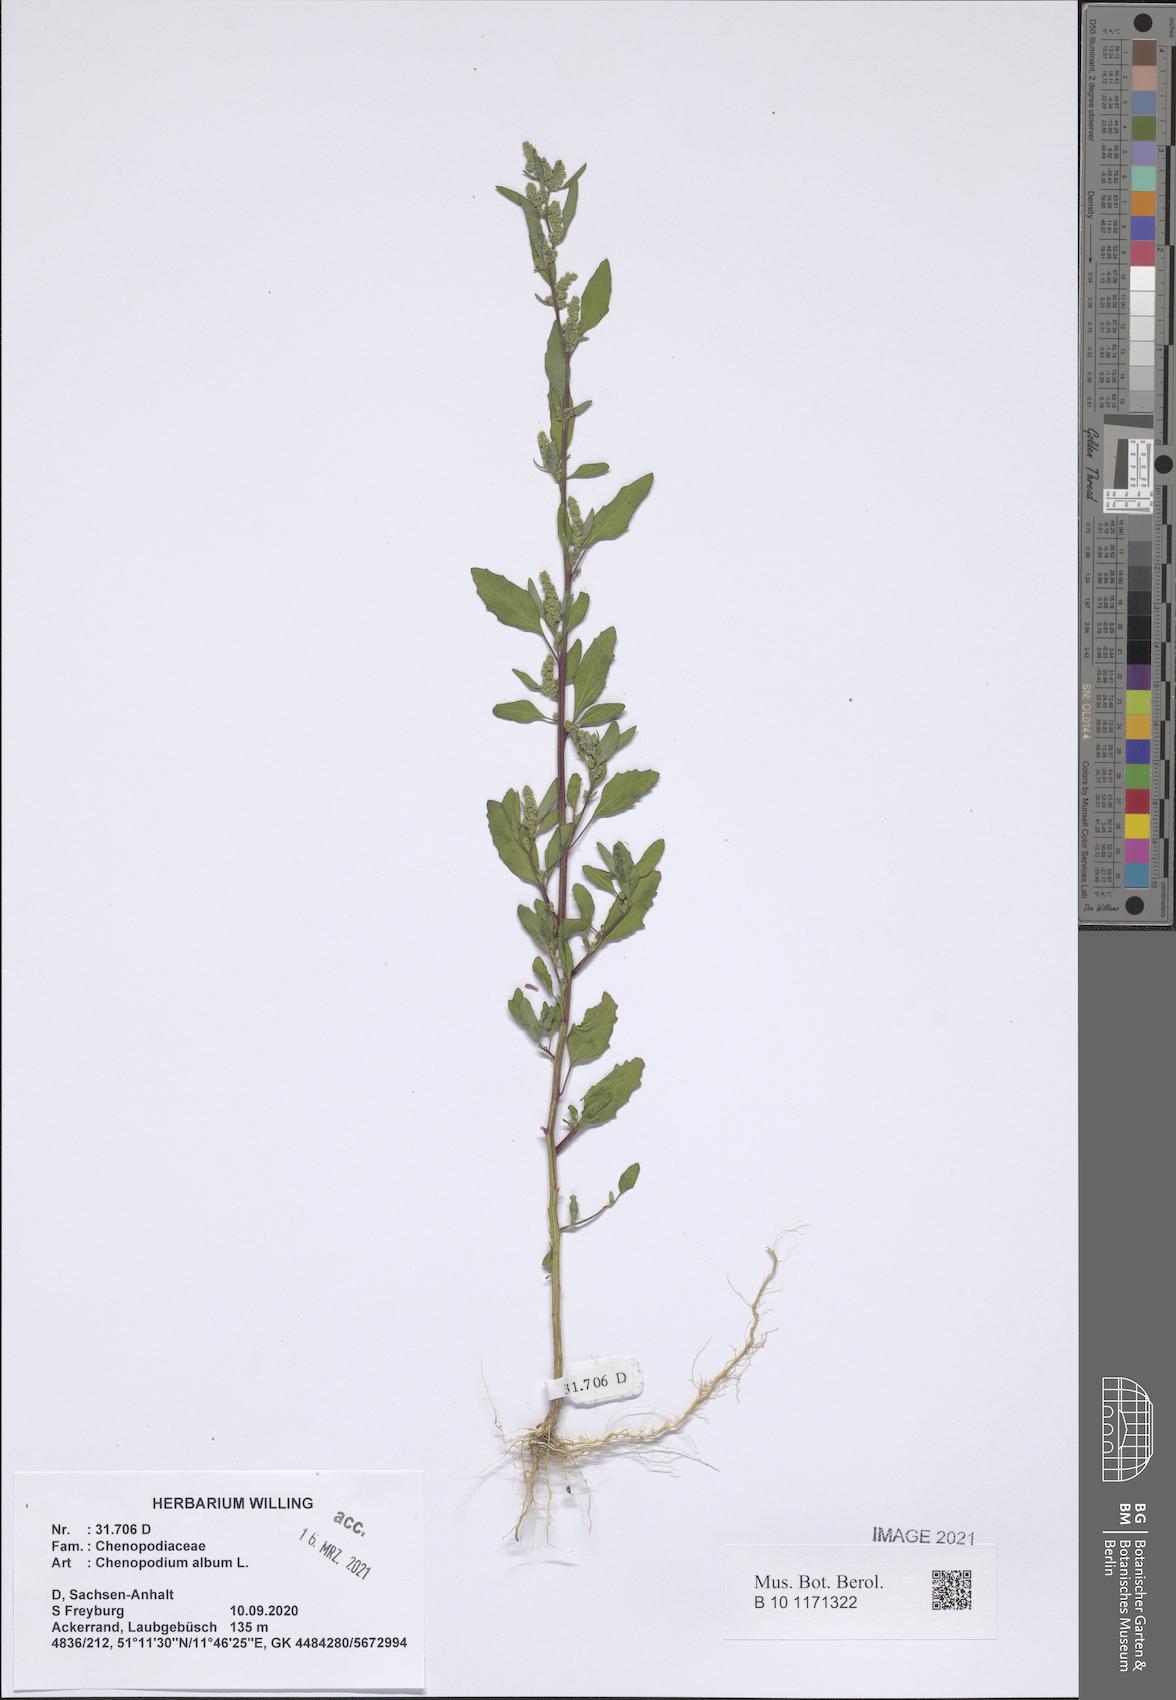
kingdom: Plantae
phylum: Tracheophyta
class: Magnoliopsida
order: Caryophyllales
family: Amaranthaceae
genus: Chenopodium
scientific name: Chenopodium album
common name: Fat-hen
